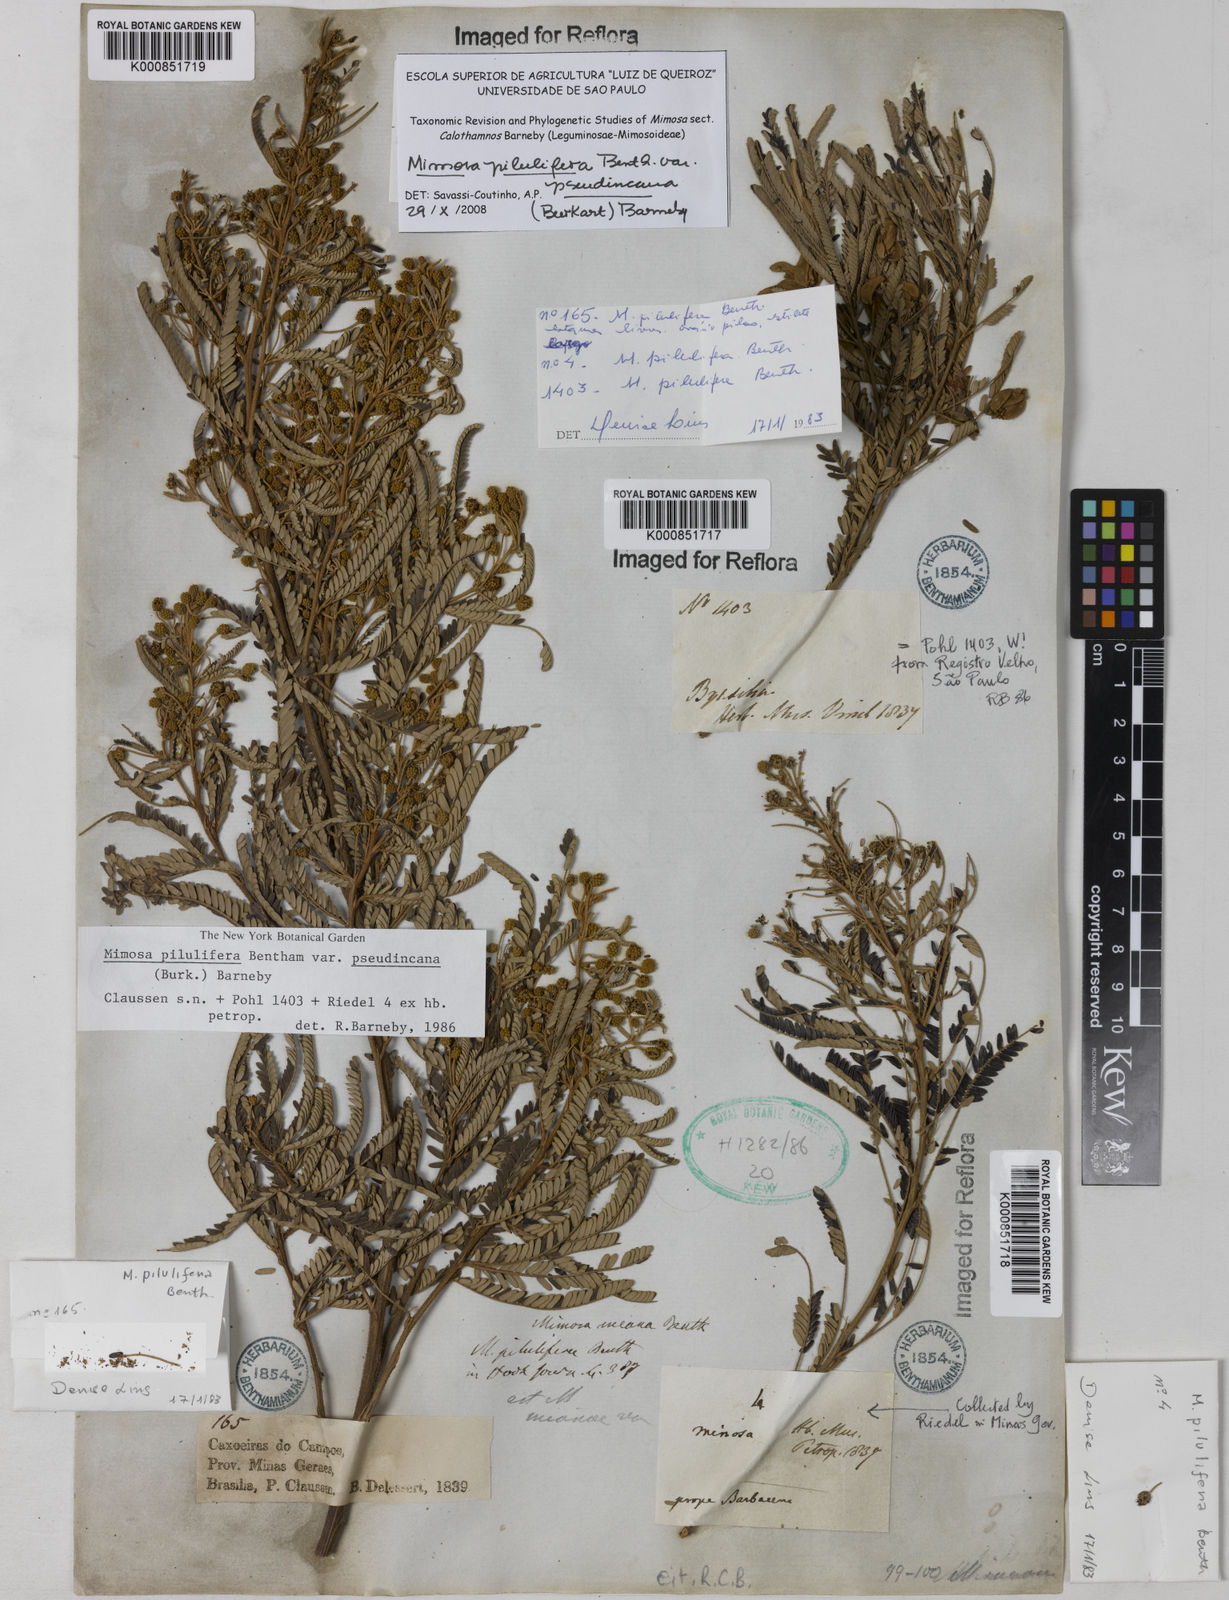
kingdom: Plantae
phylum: Tracheophyta
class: Magnoliopsida
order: Fabales
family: Fabaceae
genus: Mimosa
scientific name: Mimosa pilulifera
